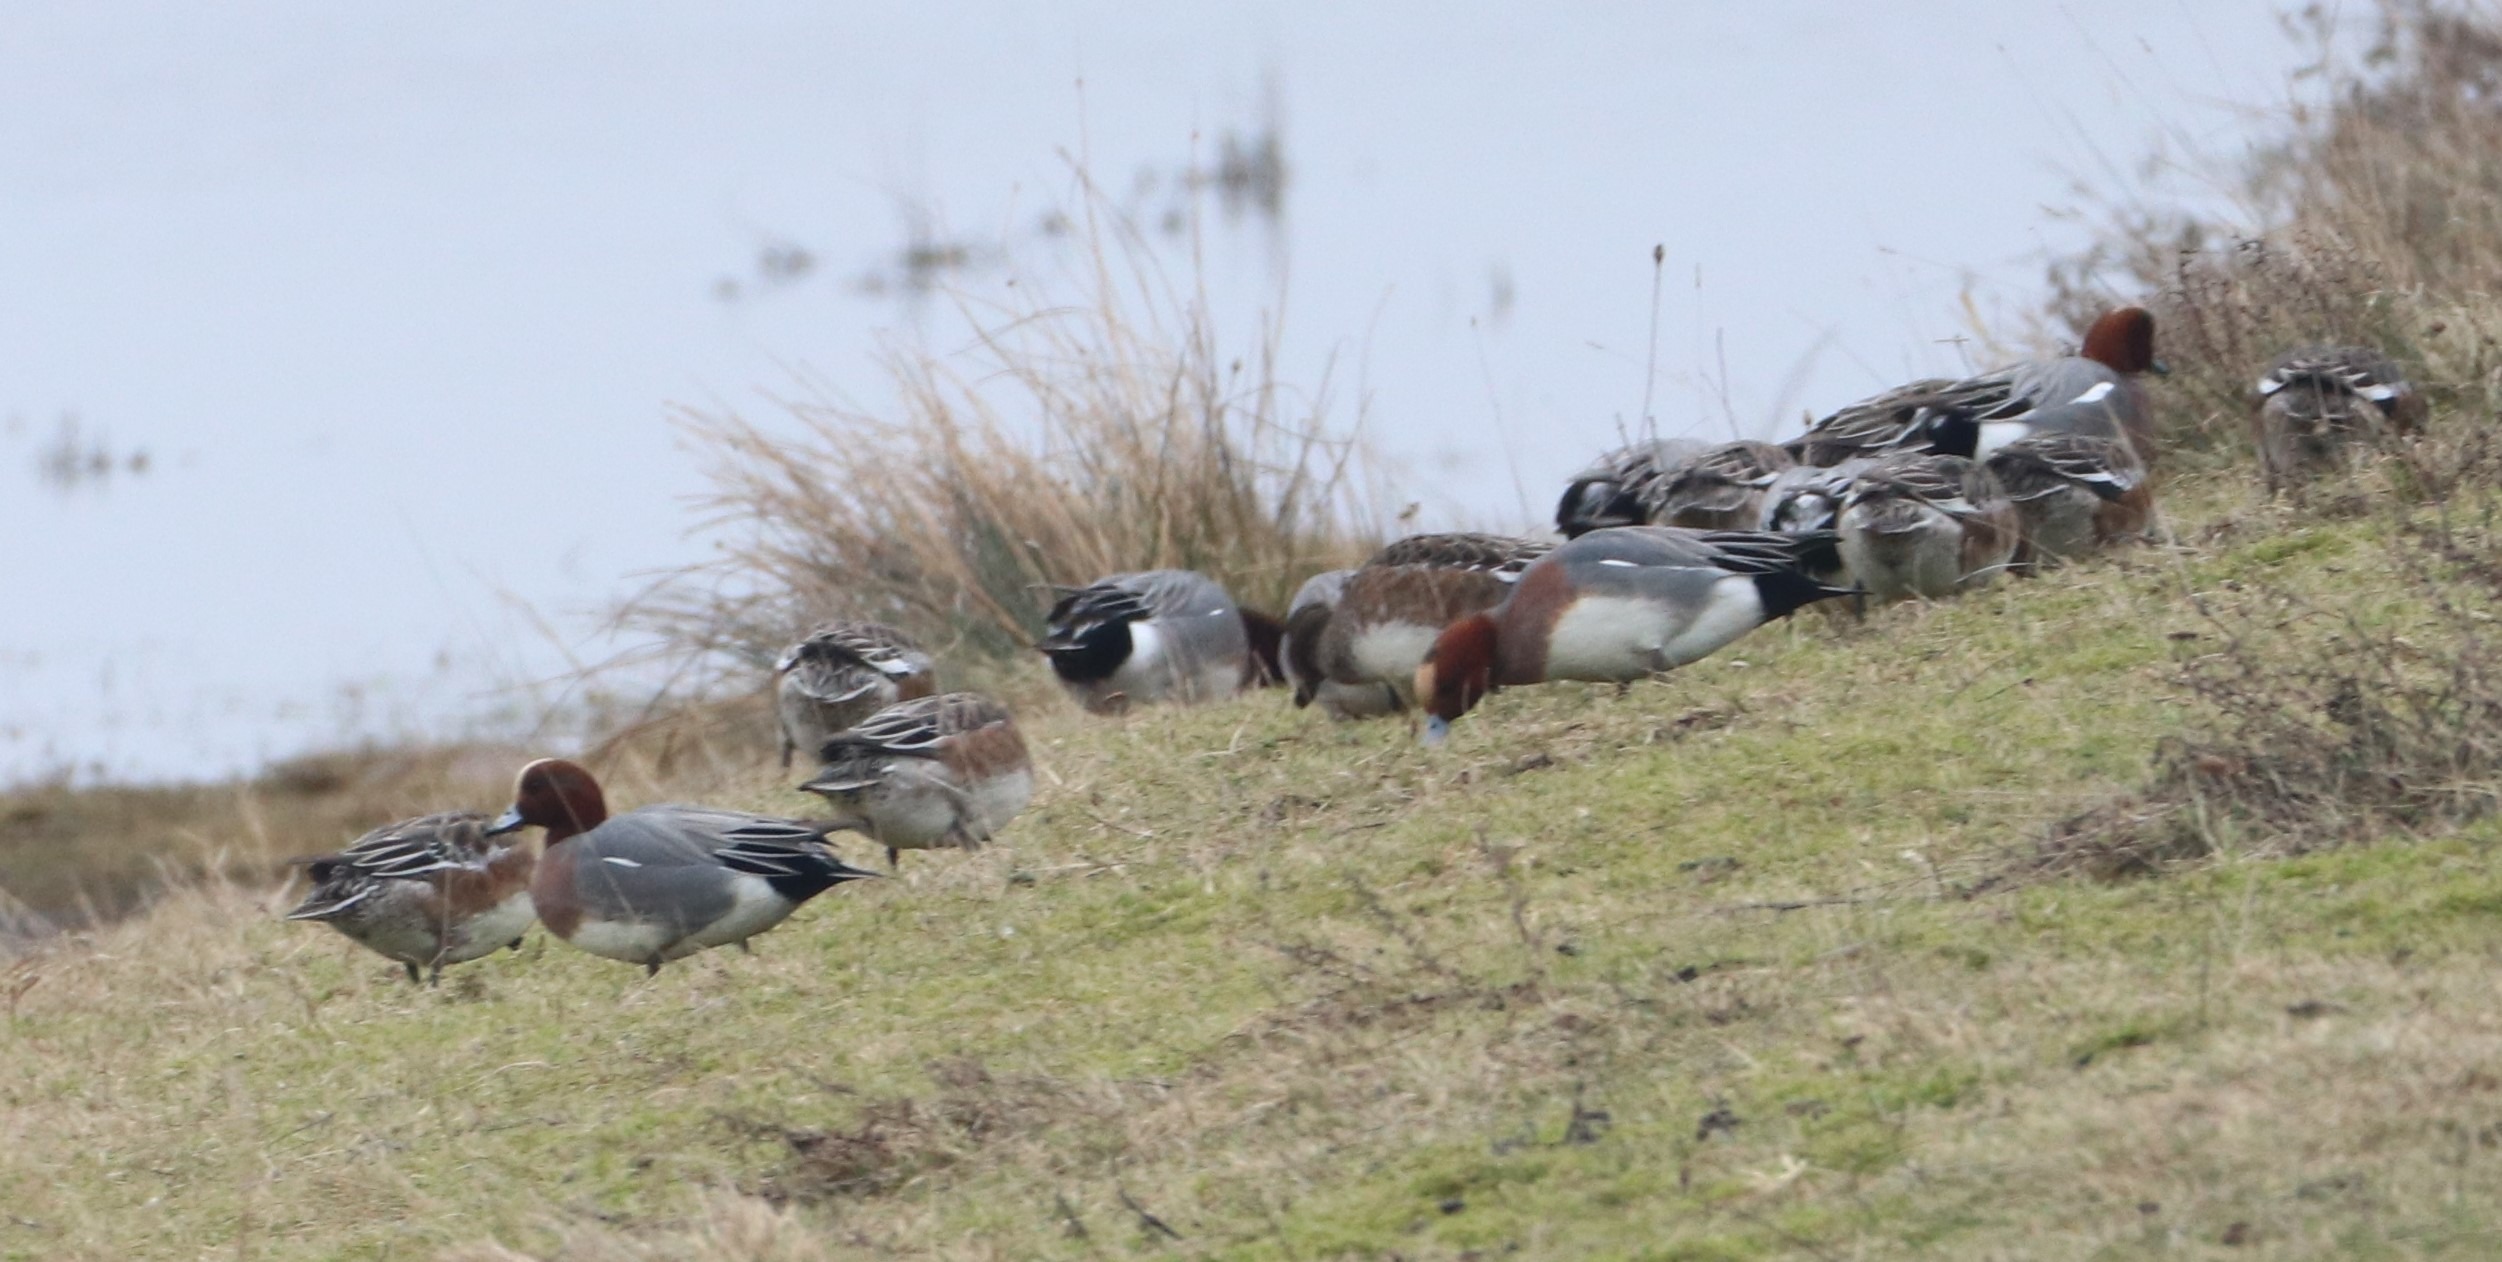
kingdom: Animalia
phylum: Chordata
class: Aves
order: Anseriformes
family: Anatidae
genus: Mareca
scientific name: Mareca penelope
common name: Pibeand
